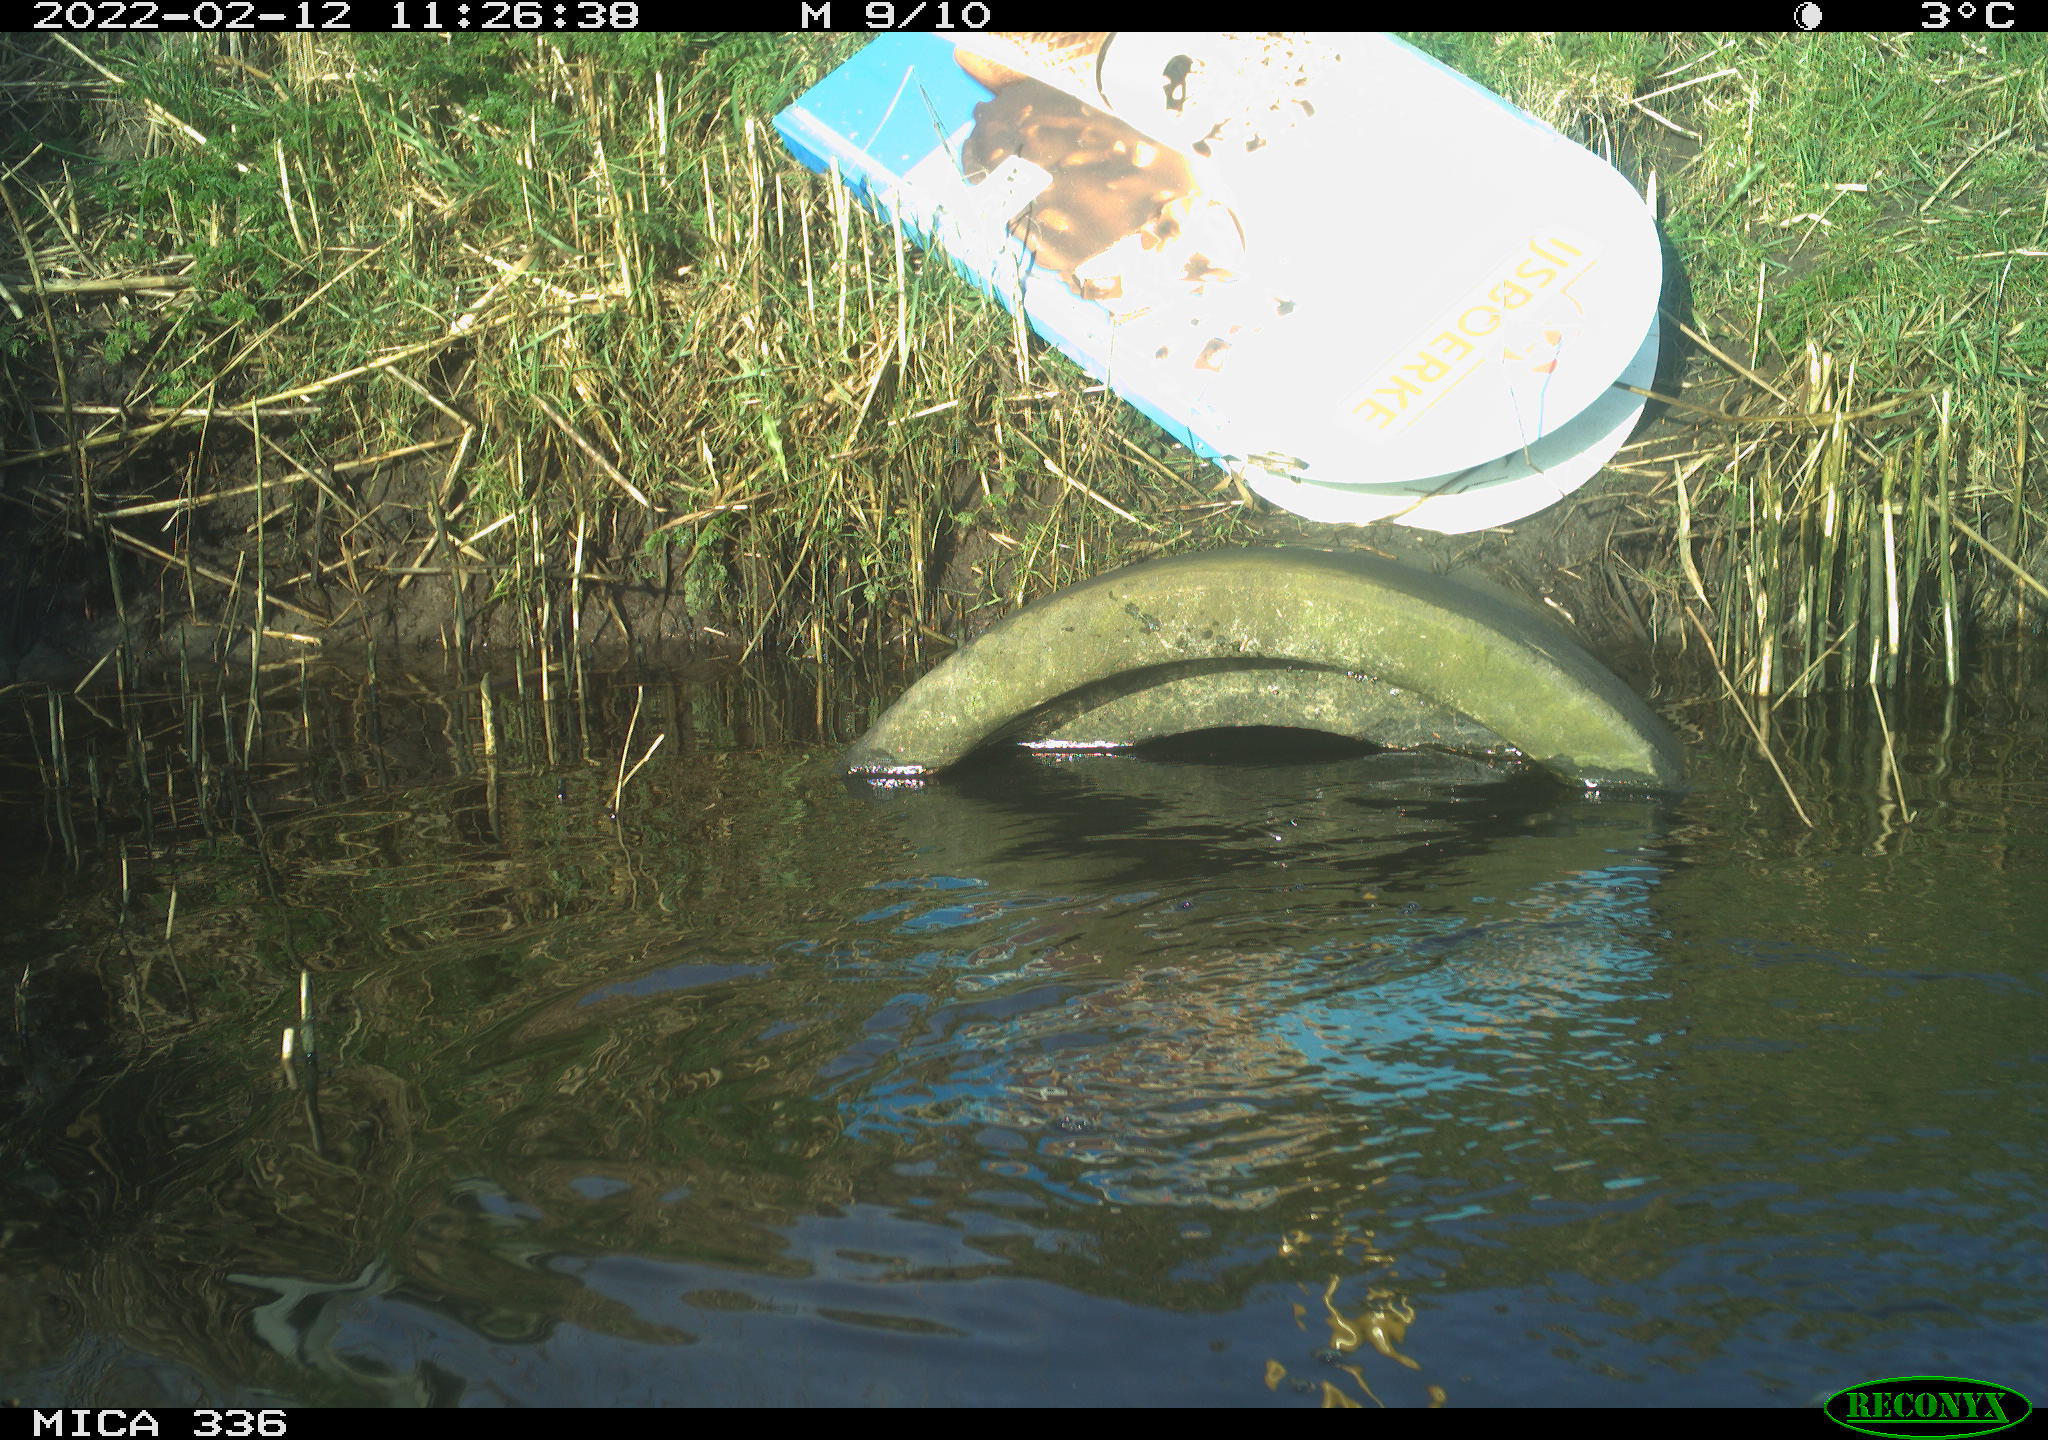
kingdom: Animalia
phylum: Chordata
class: Aves
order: Suliformes
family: Phalacrocoracidae
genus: Phalacrocorax
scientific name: Phalacrocorax carbo
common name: Great cormorant
